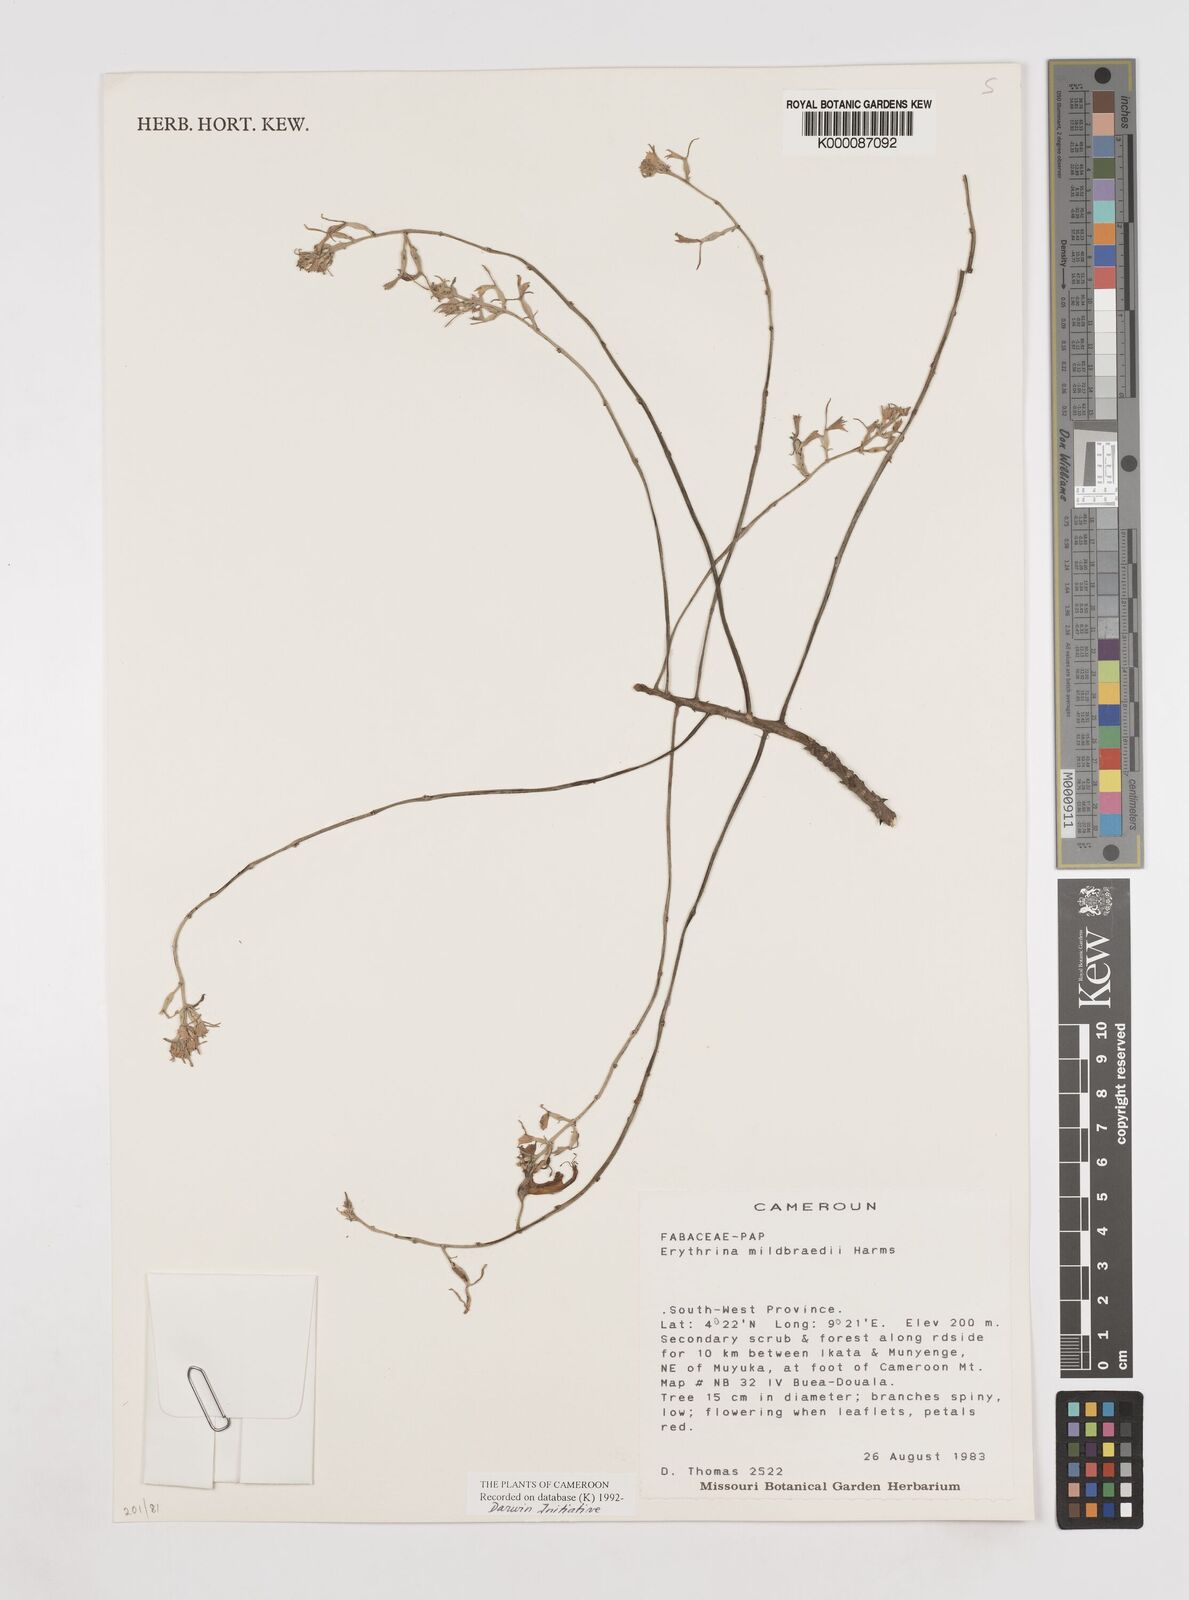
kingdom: Plantae
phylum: Tracheophyta
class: Magnoliopsida
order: Fabales
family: Fabaceae
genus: Erythrina
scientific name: Erythrina mildbraedii
